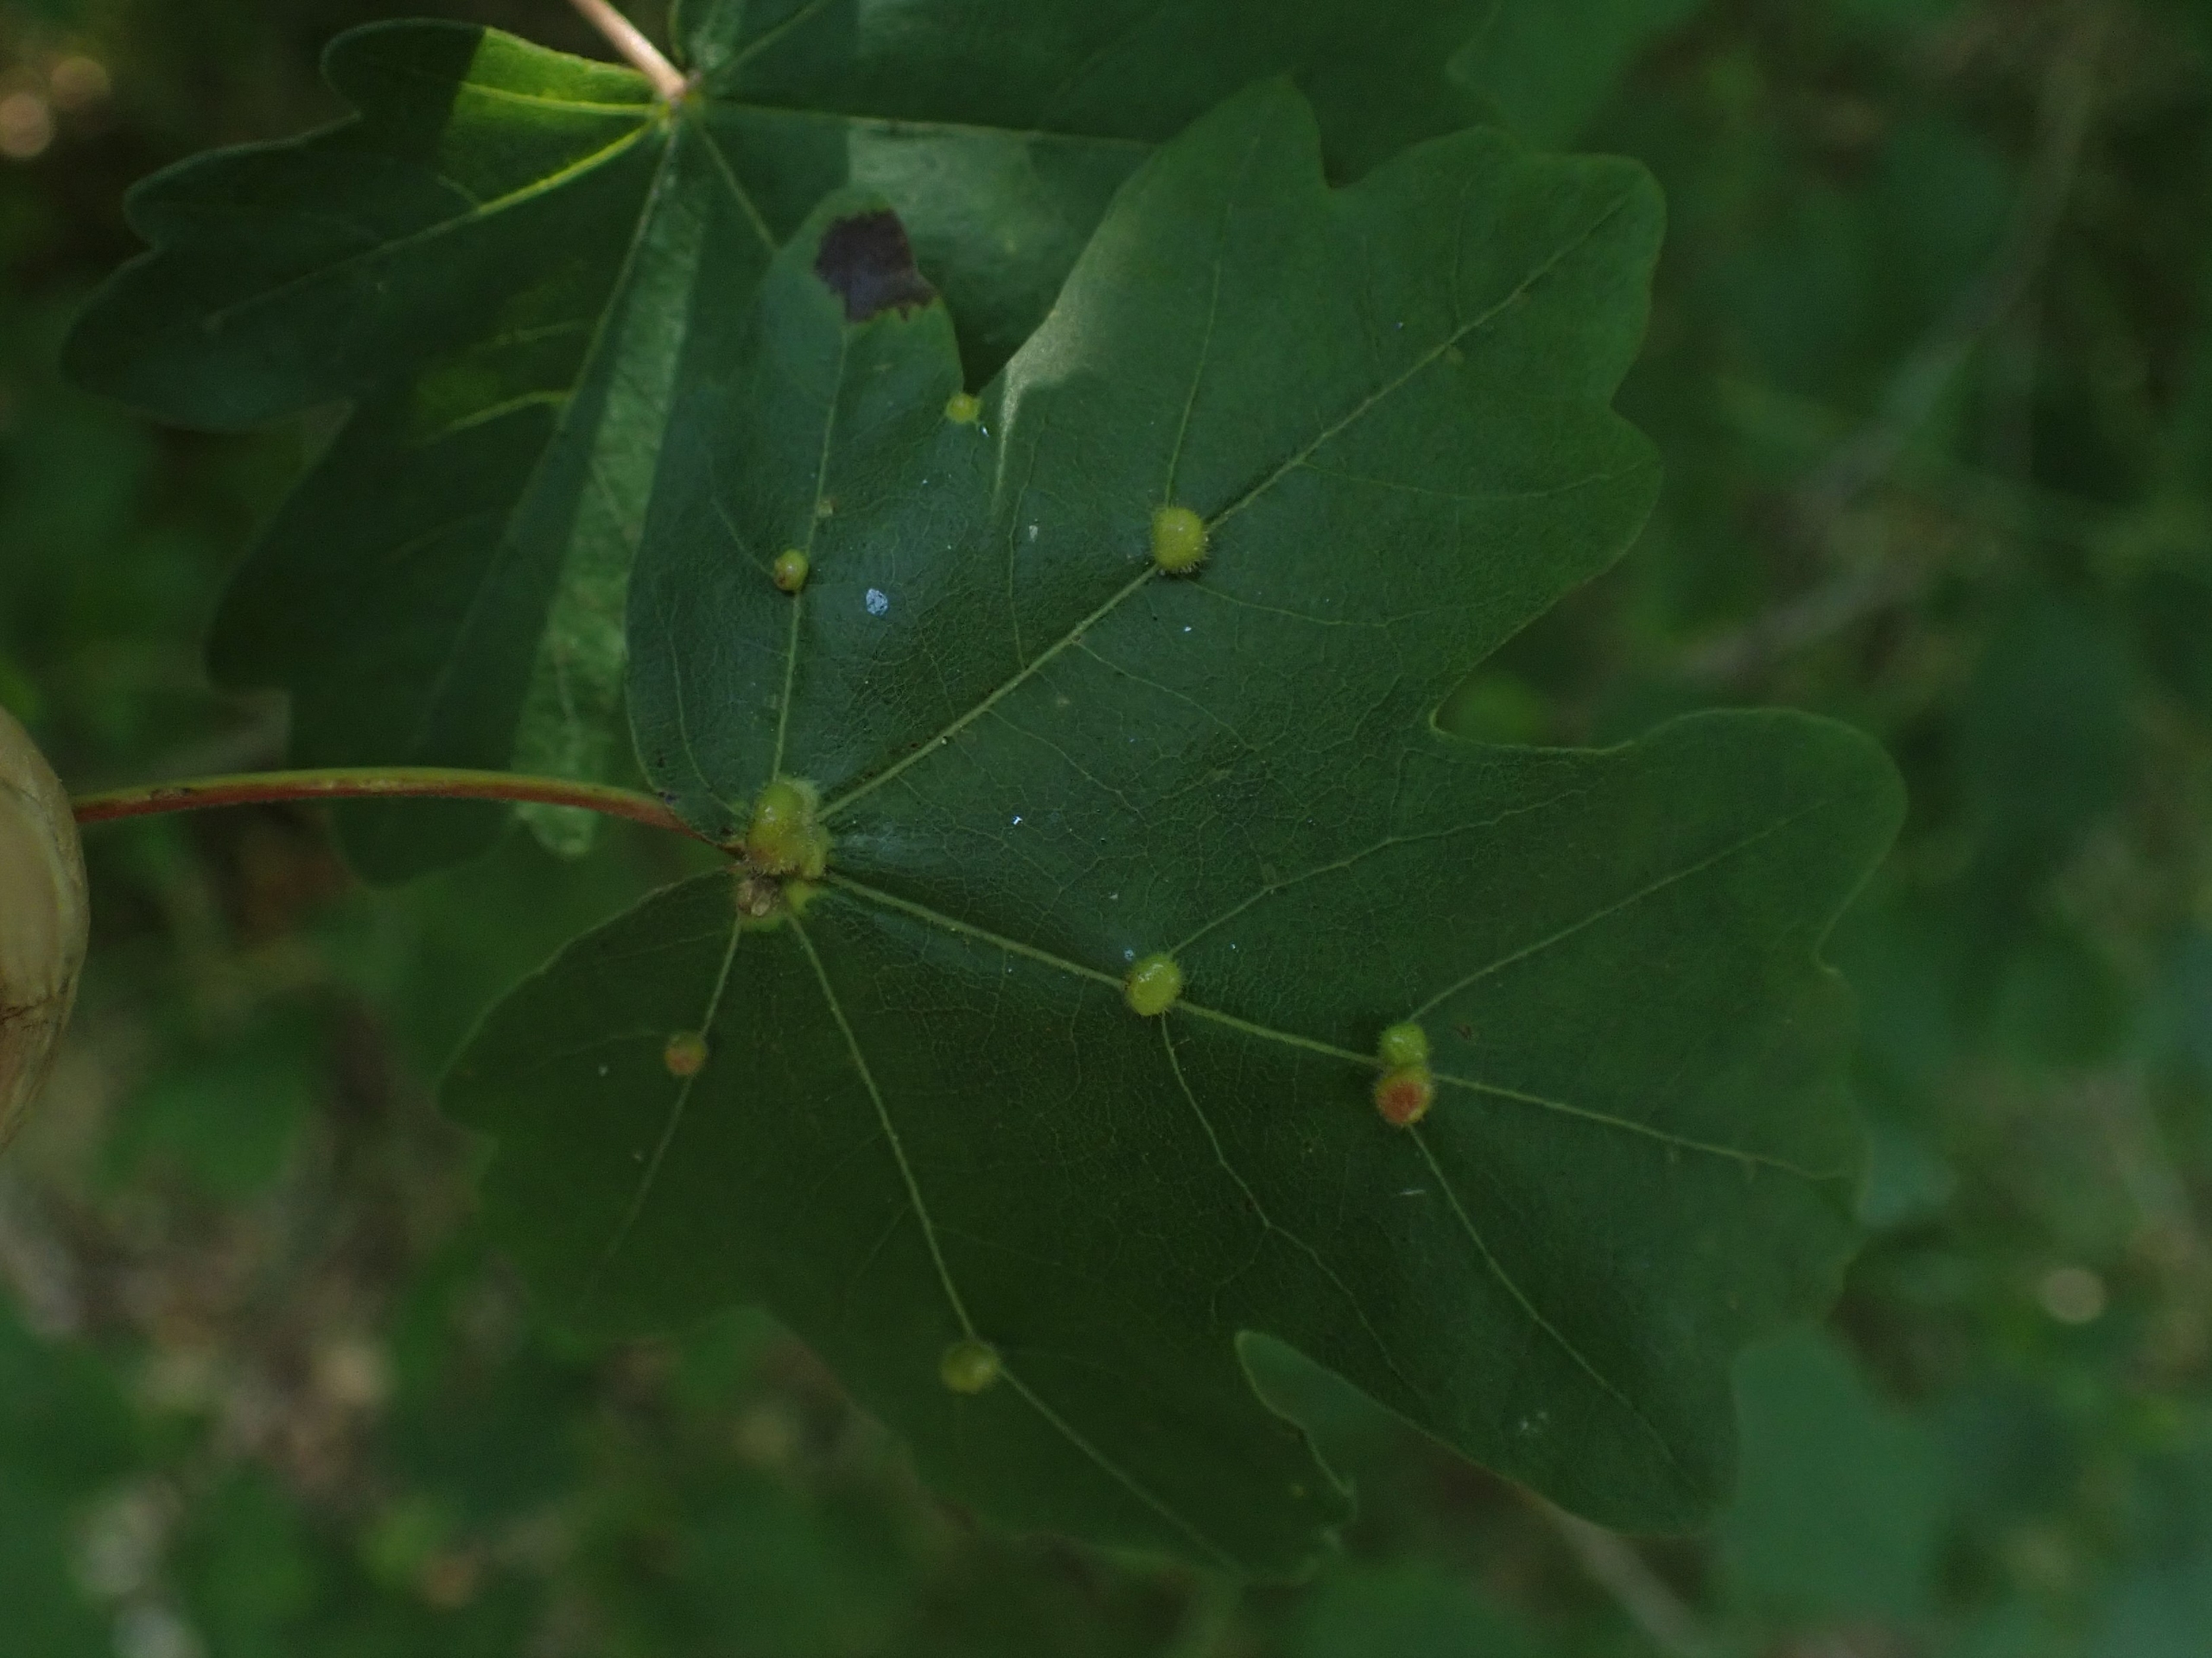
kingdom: Animalia
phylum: Arthropoda
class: Arachnida
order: Trombidiformes
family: Eriophyidae
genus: Aceria
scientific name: Aceria macrochelus
